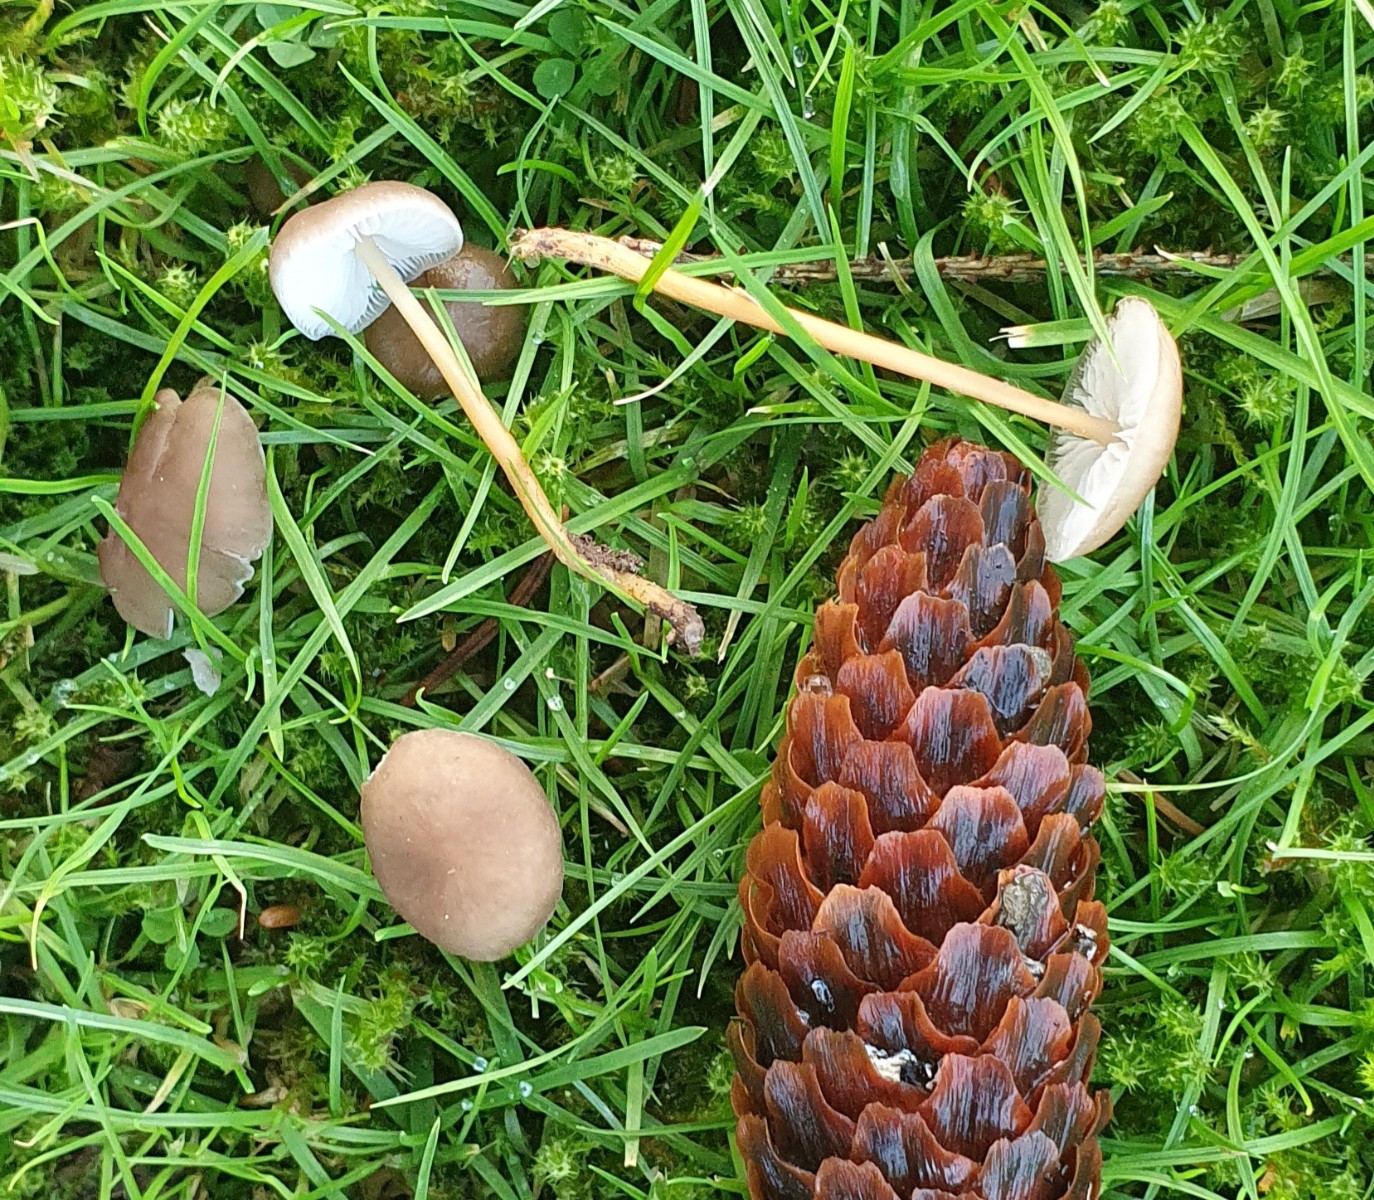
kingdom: Fungi
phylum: Basidiomycota
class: Agaricomycetes
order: Agaricales
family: Physalacriaceae
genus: Strobilurus
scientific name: Strobilurus esculentus
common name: gran-koglehat
